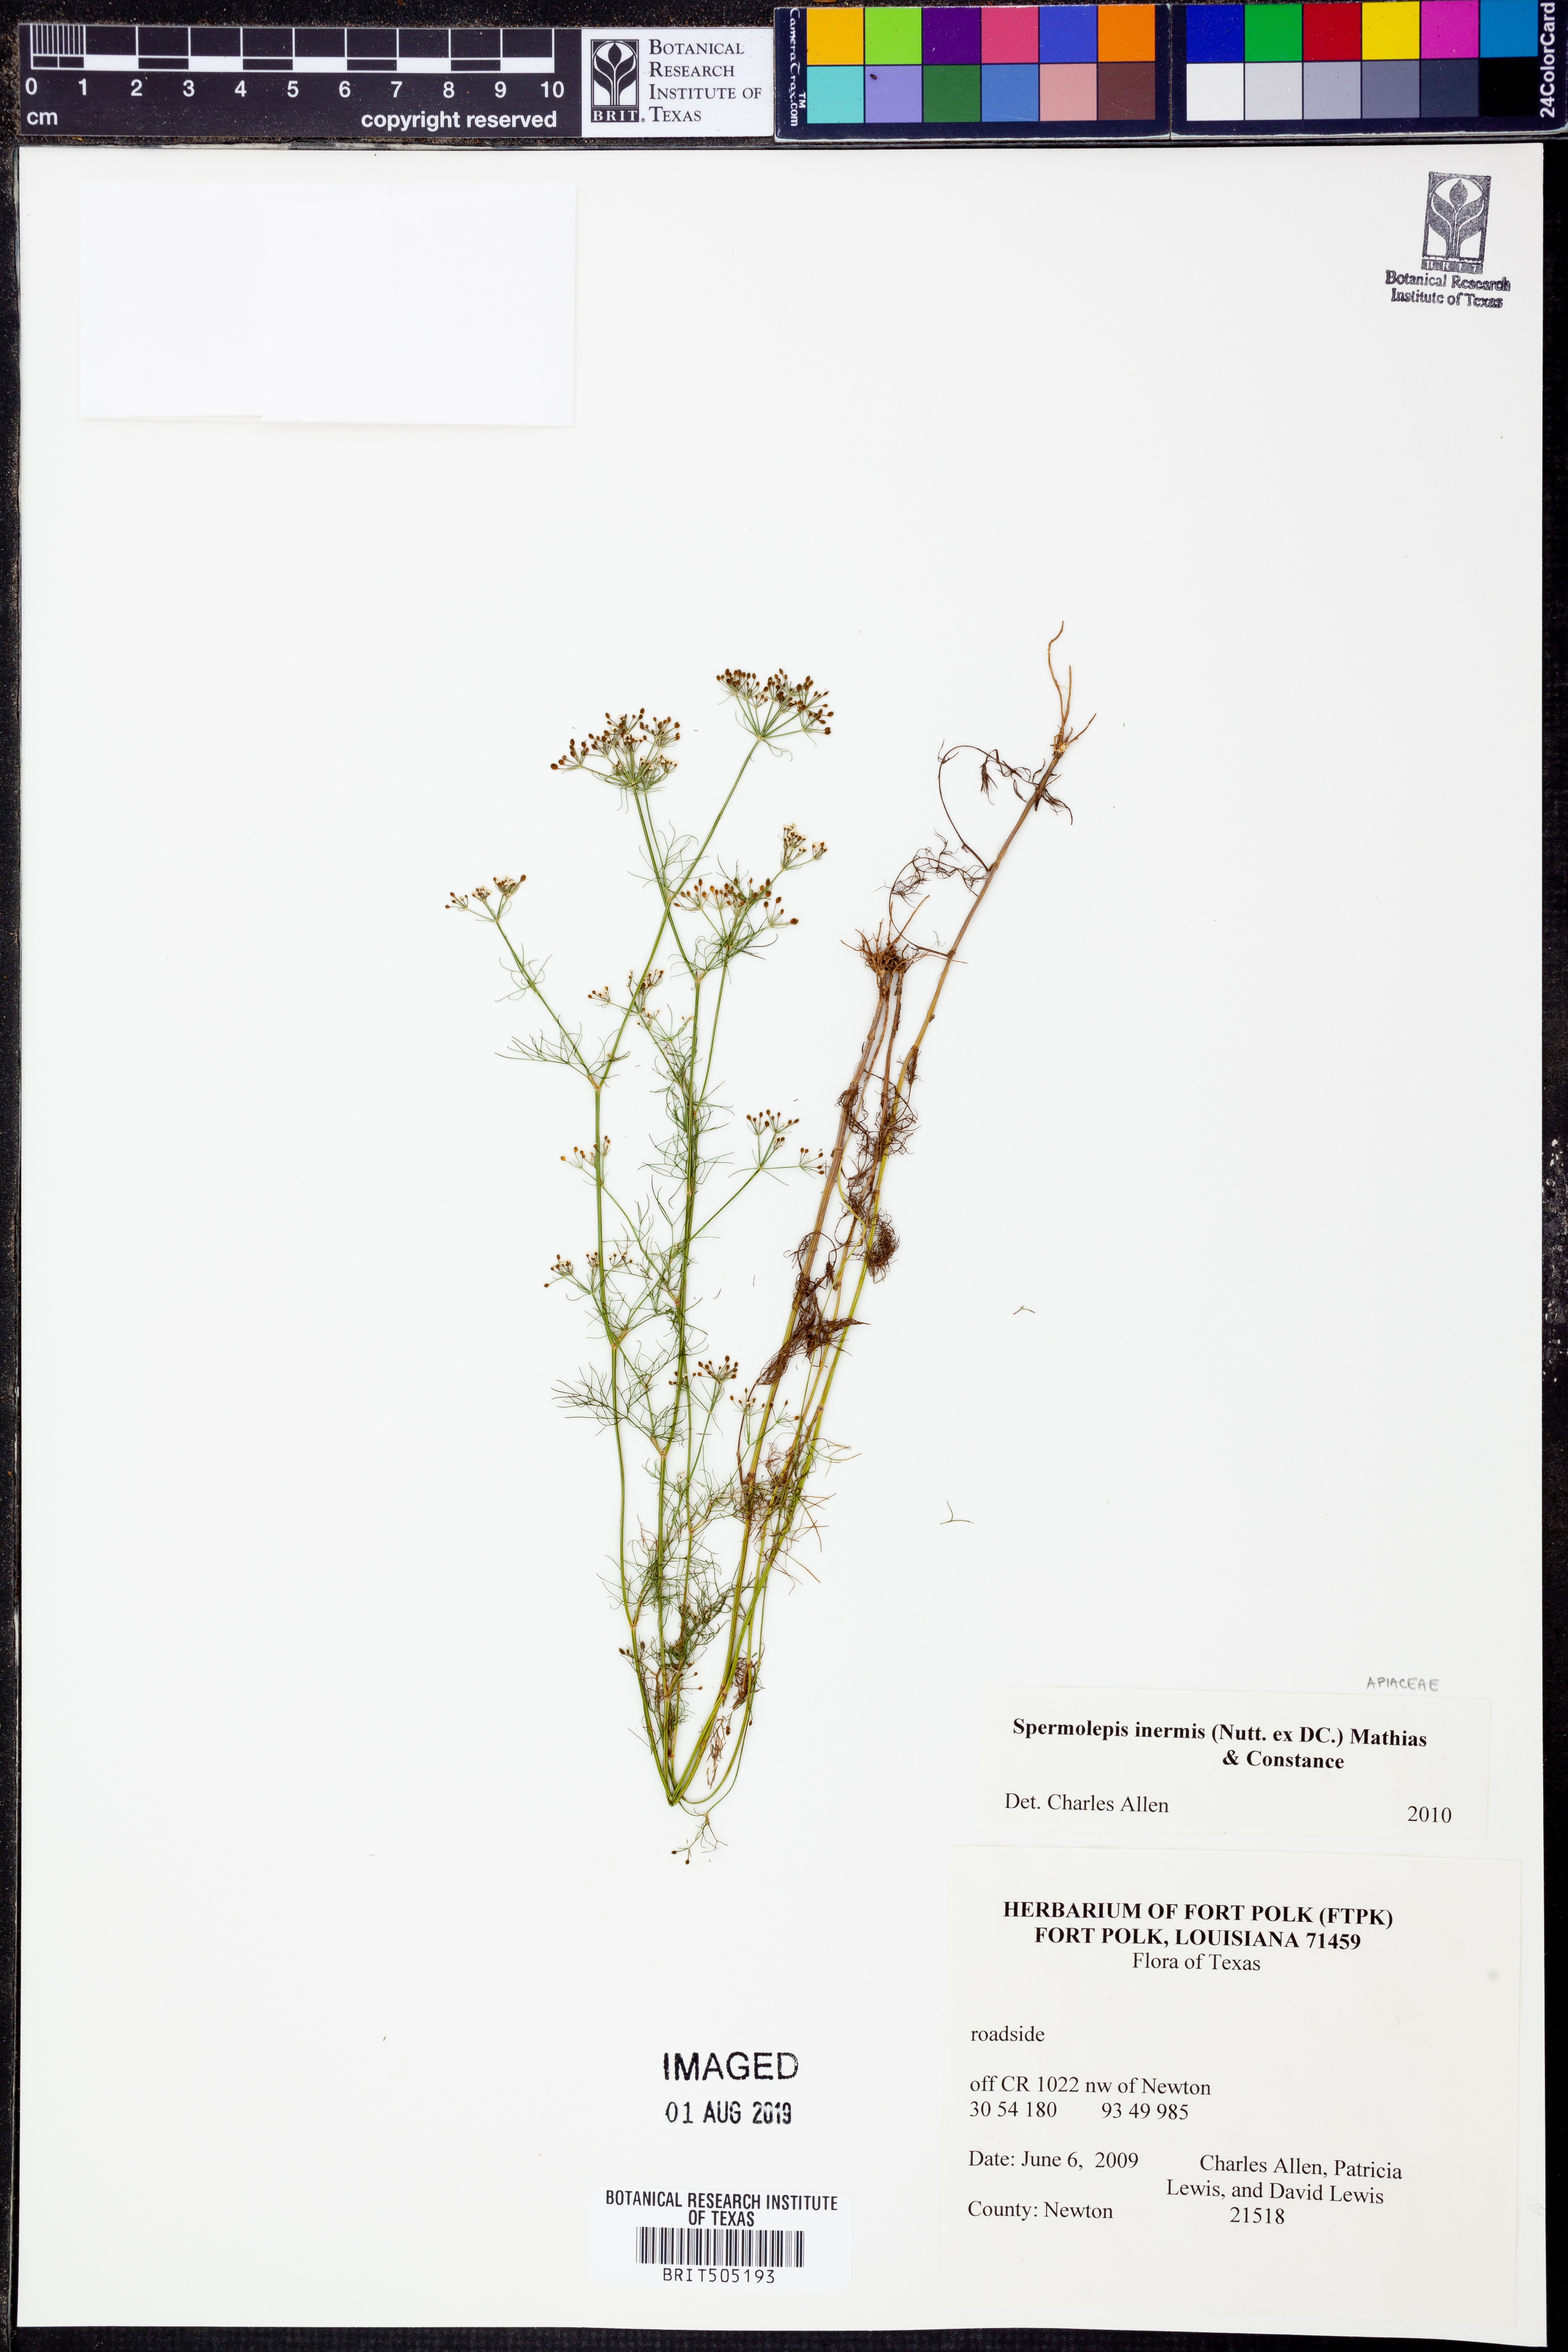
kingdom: Plantae
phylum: Tracheophyta
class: Magnoliopsida
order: Apiales
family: Apiaceae
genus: Spermolepis
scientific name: Spermolepis inermis
